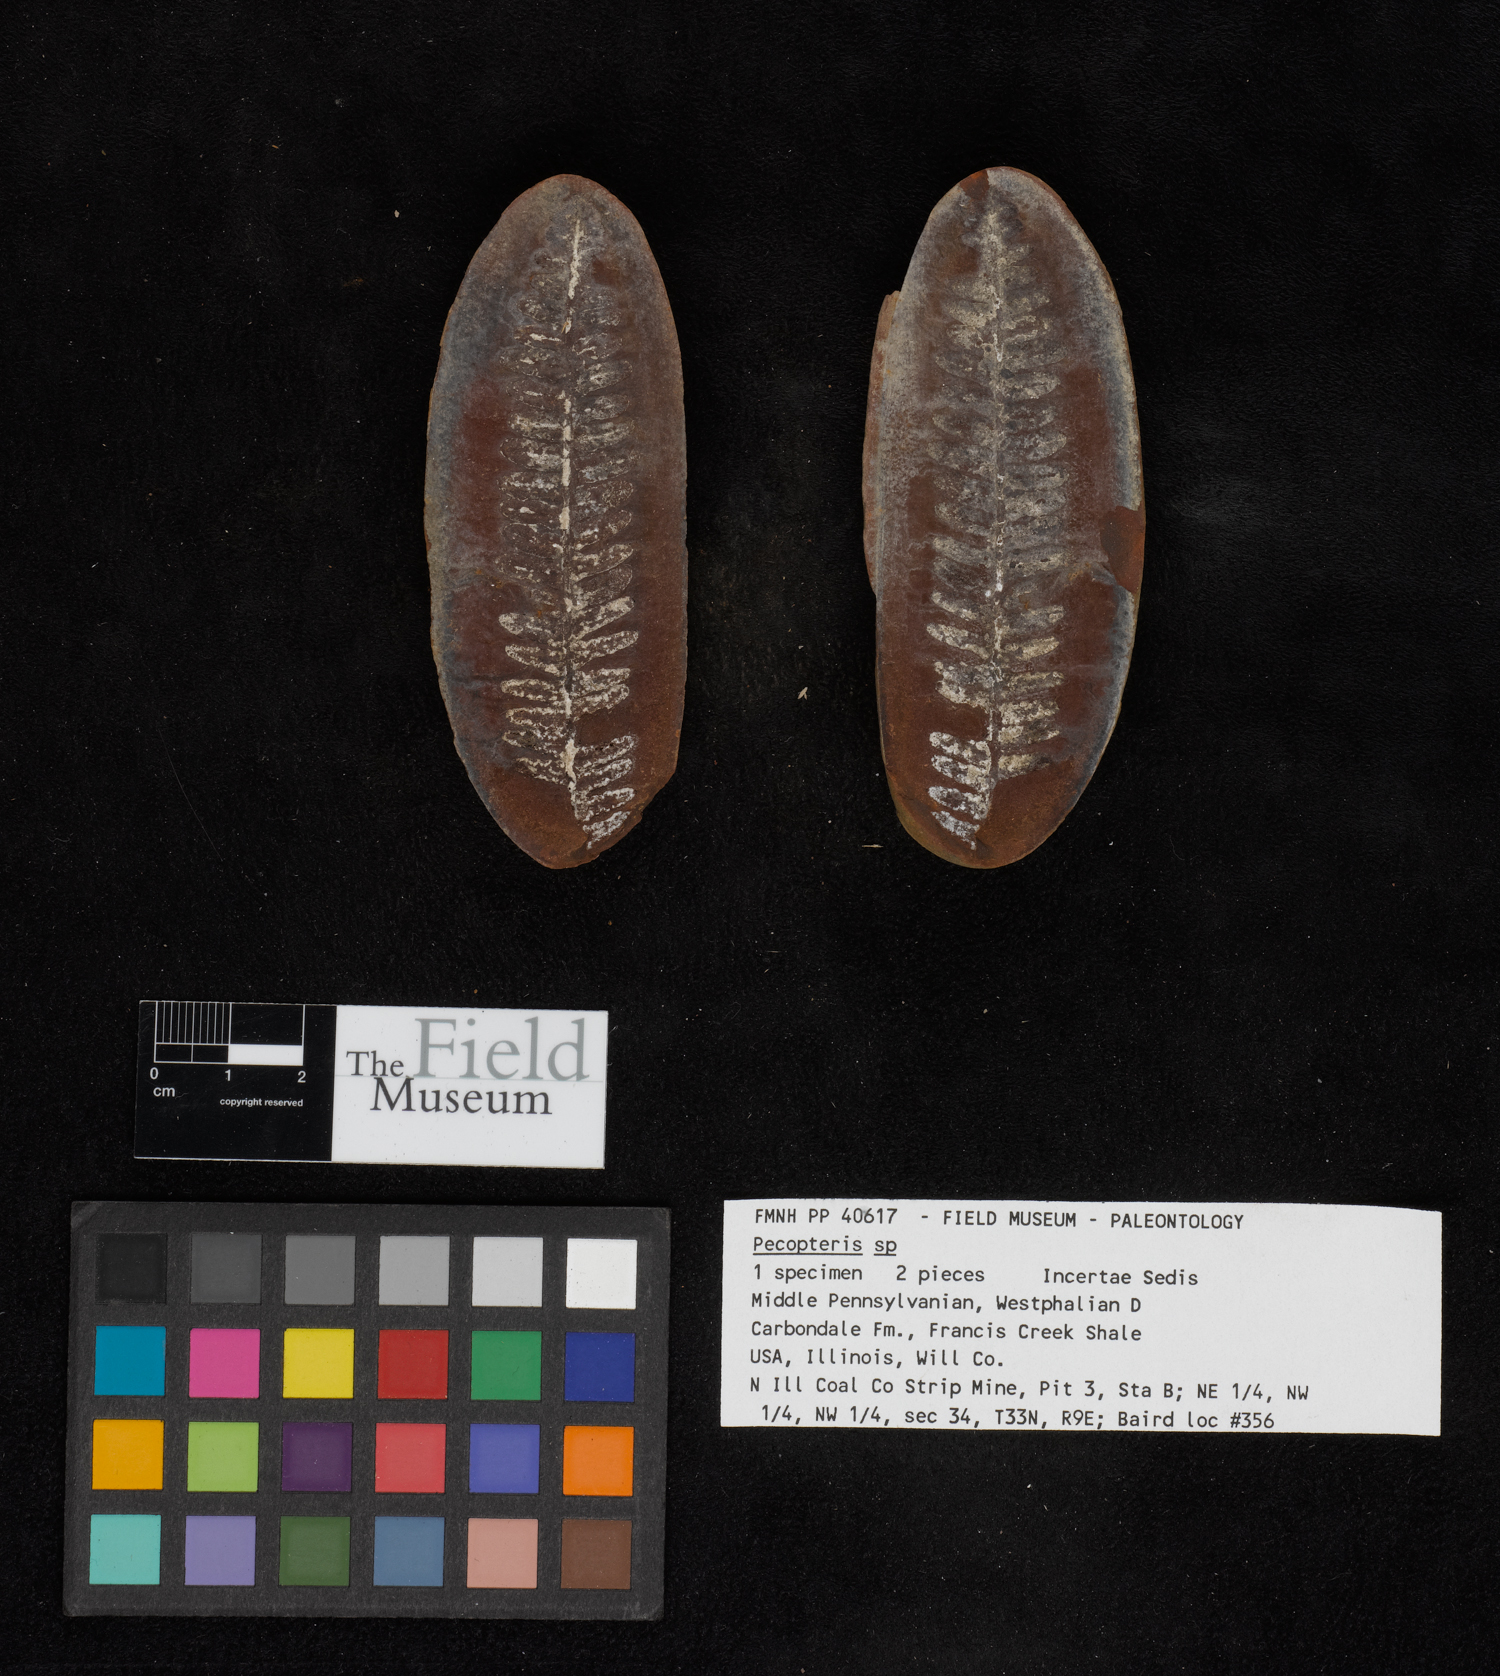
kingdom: Plantae
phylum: Tracheophyta
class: Polypodiopsida
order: Marattiales
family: Asterothecaceae
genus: Pecopteris
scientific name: Pecopteris
